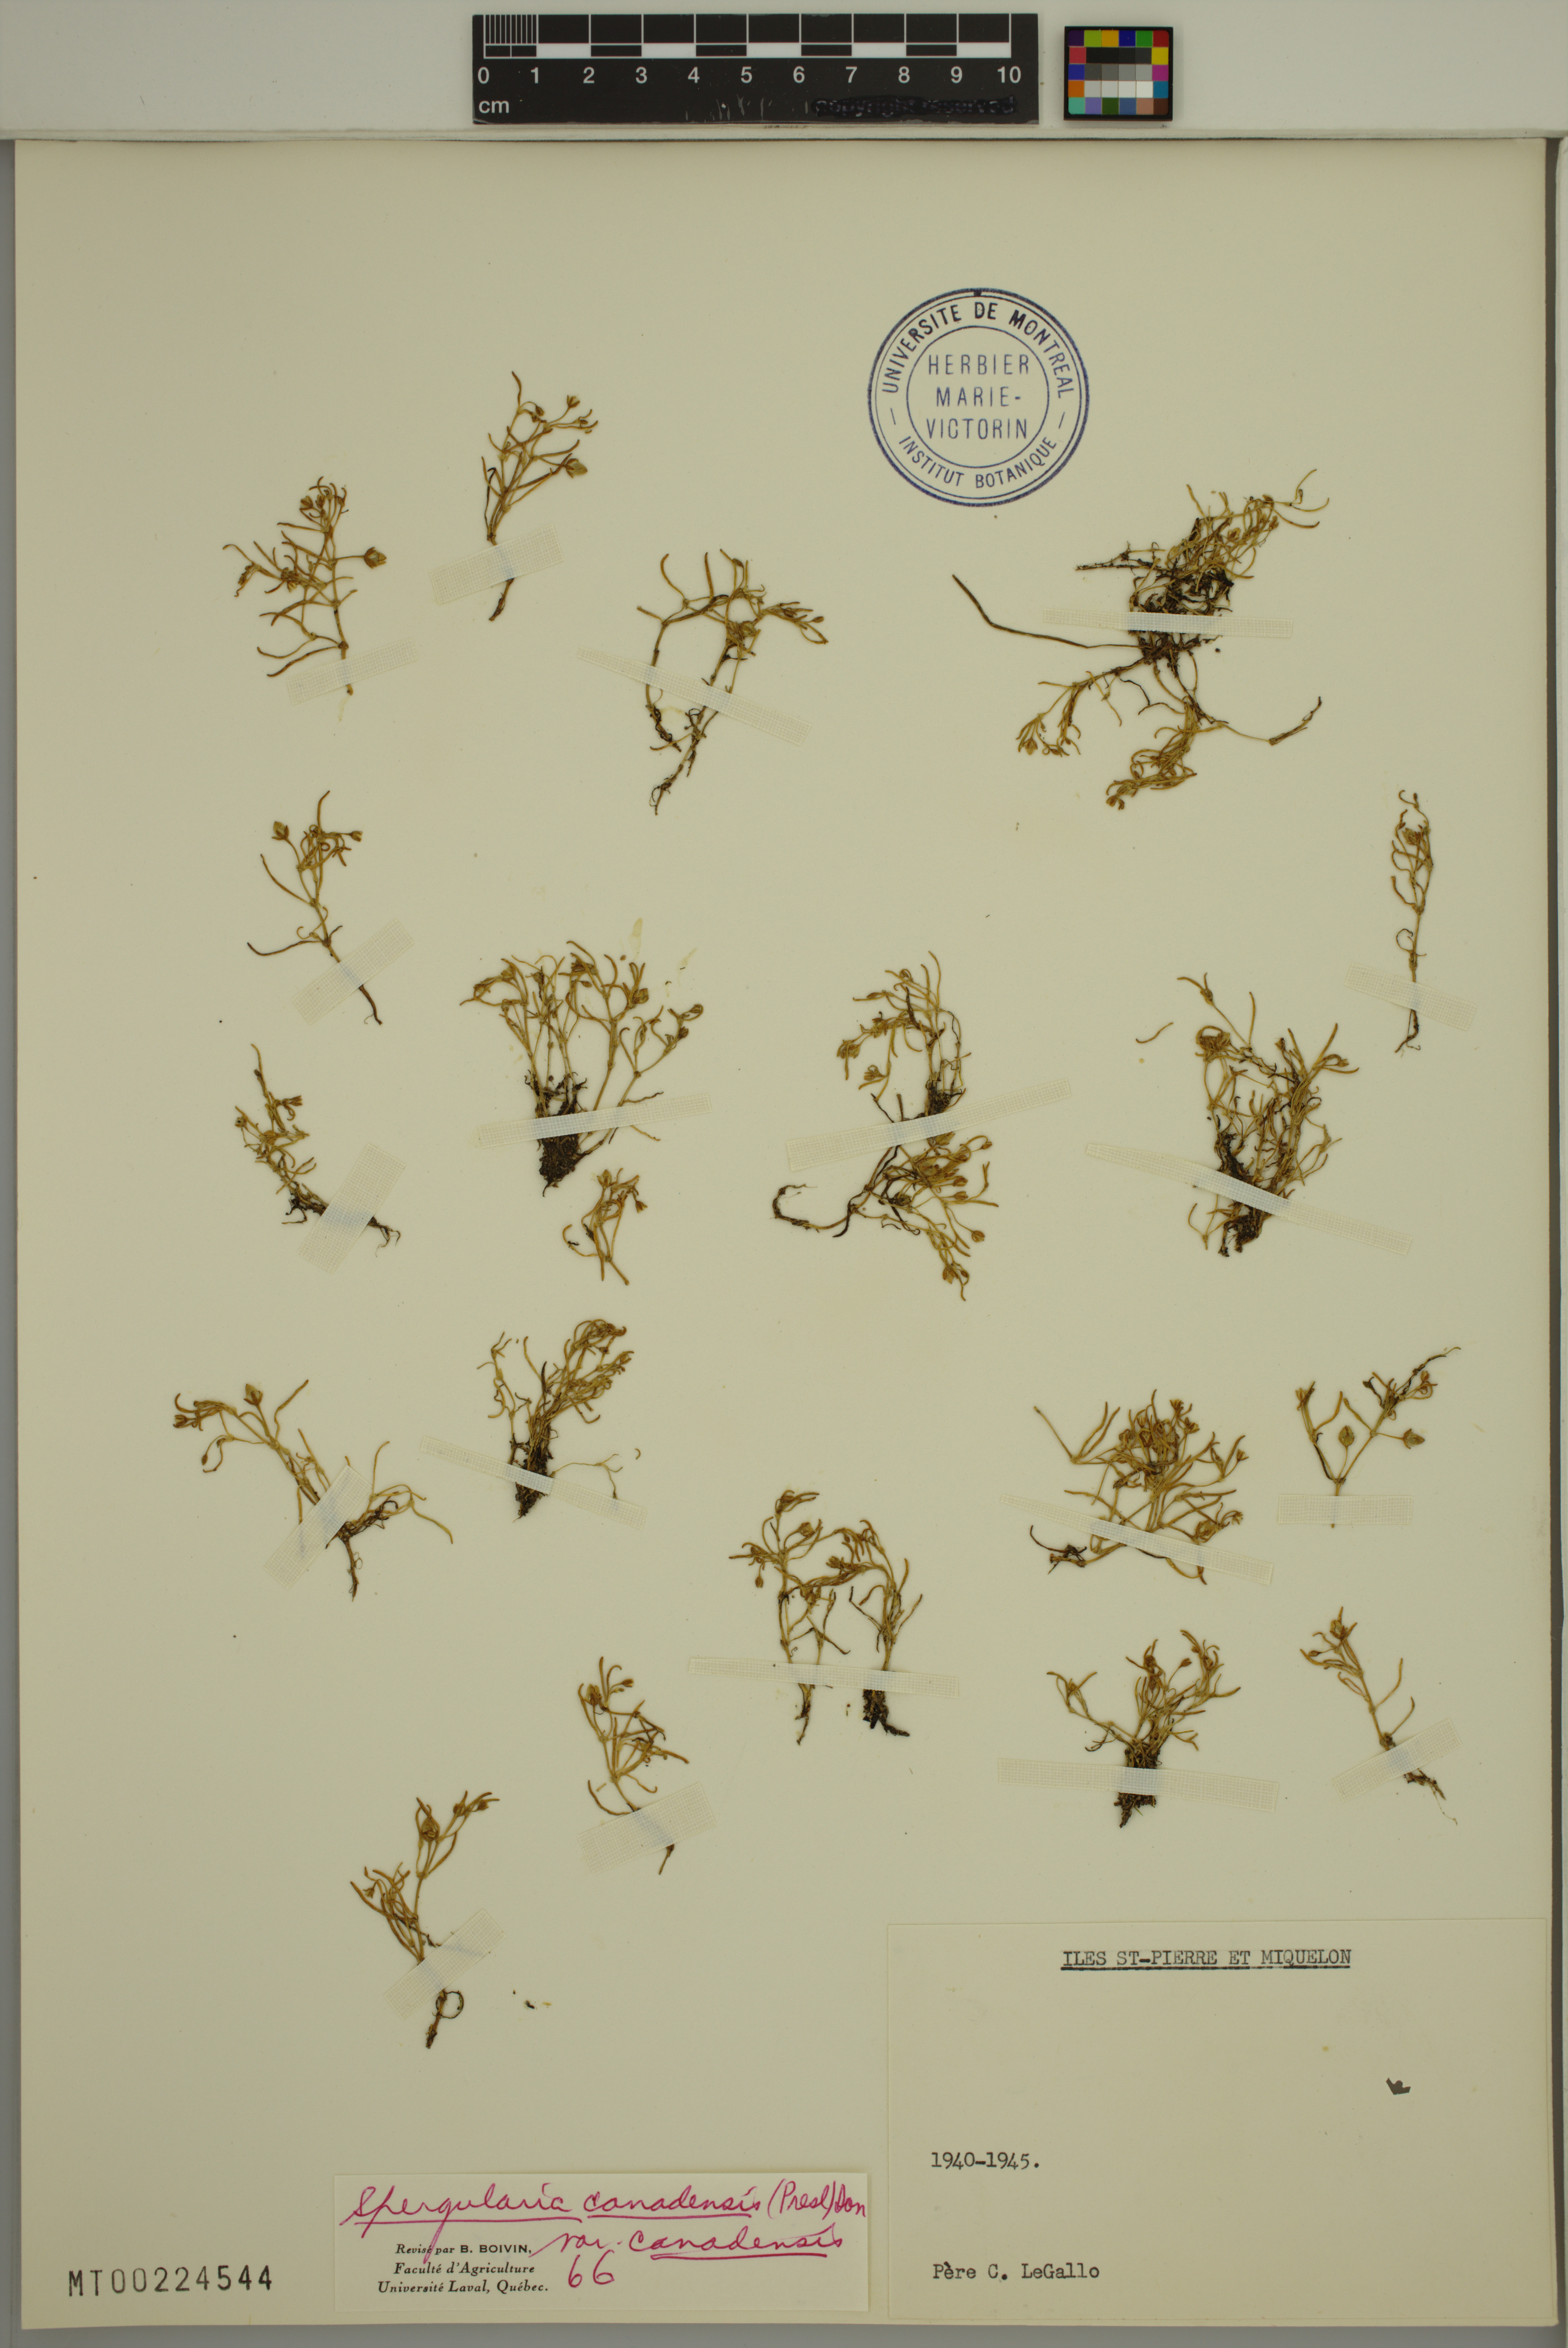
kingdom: Plantae
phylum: Tracheophyta
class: Magnoliopsida
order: Caryophyllales
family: Caryophyllaceae
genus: Spergularia
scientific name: Spergularia canadensis
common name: Canada sand-spurrey
